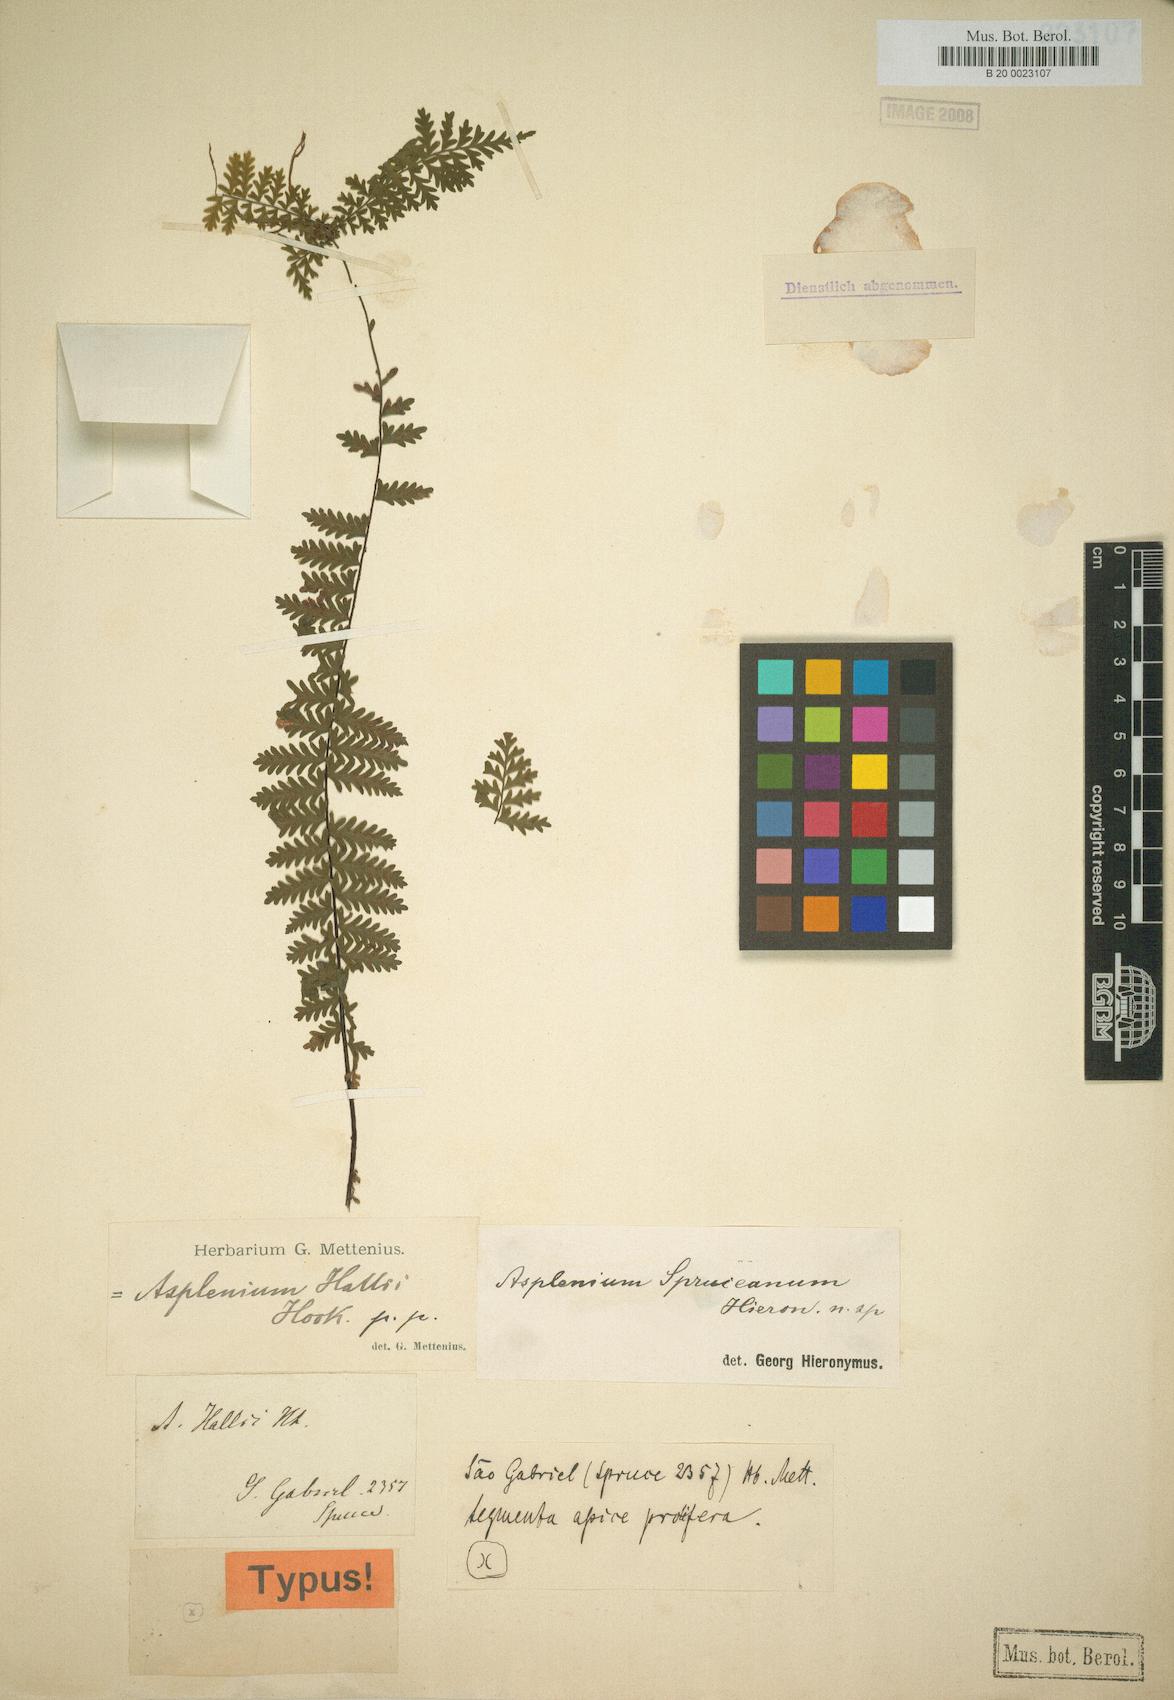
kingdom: Plantae
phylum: Tracheophyta
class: Polypodiopsida
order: Polypodiales
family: Aspleniaceae
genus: Asplenium
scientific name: Asplenium hallii
